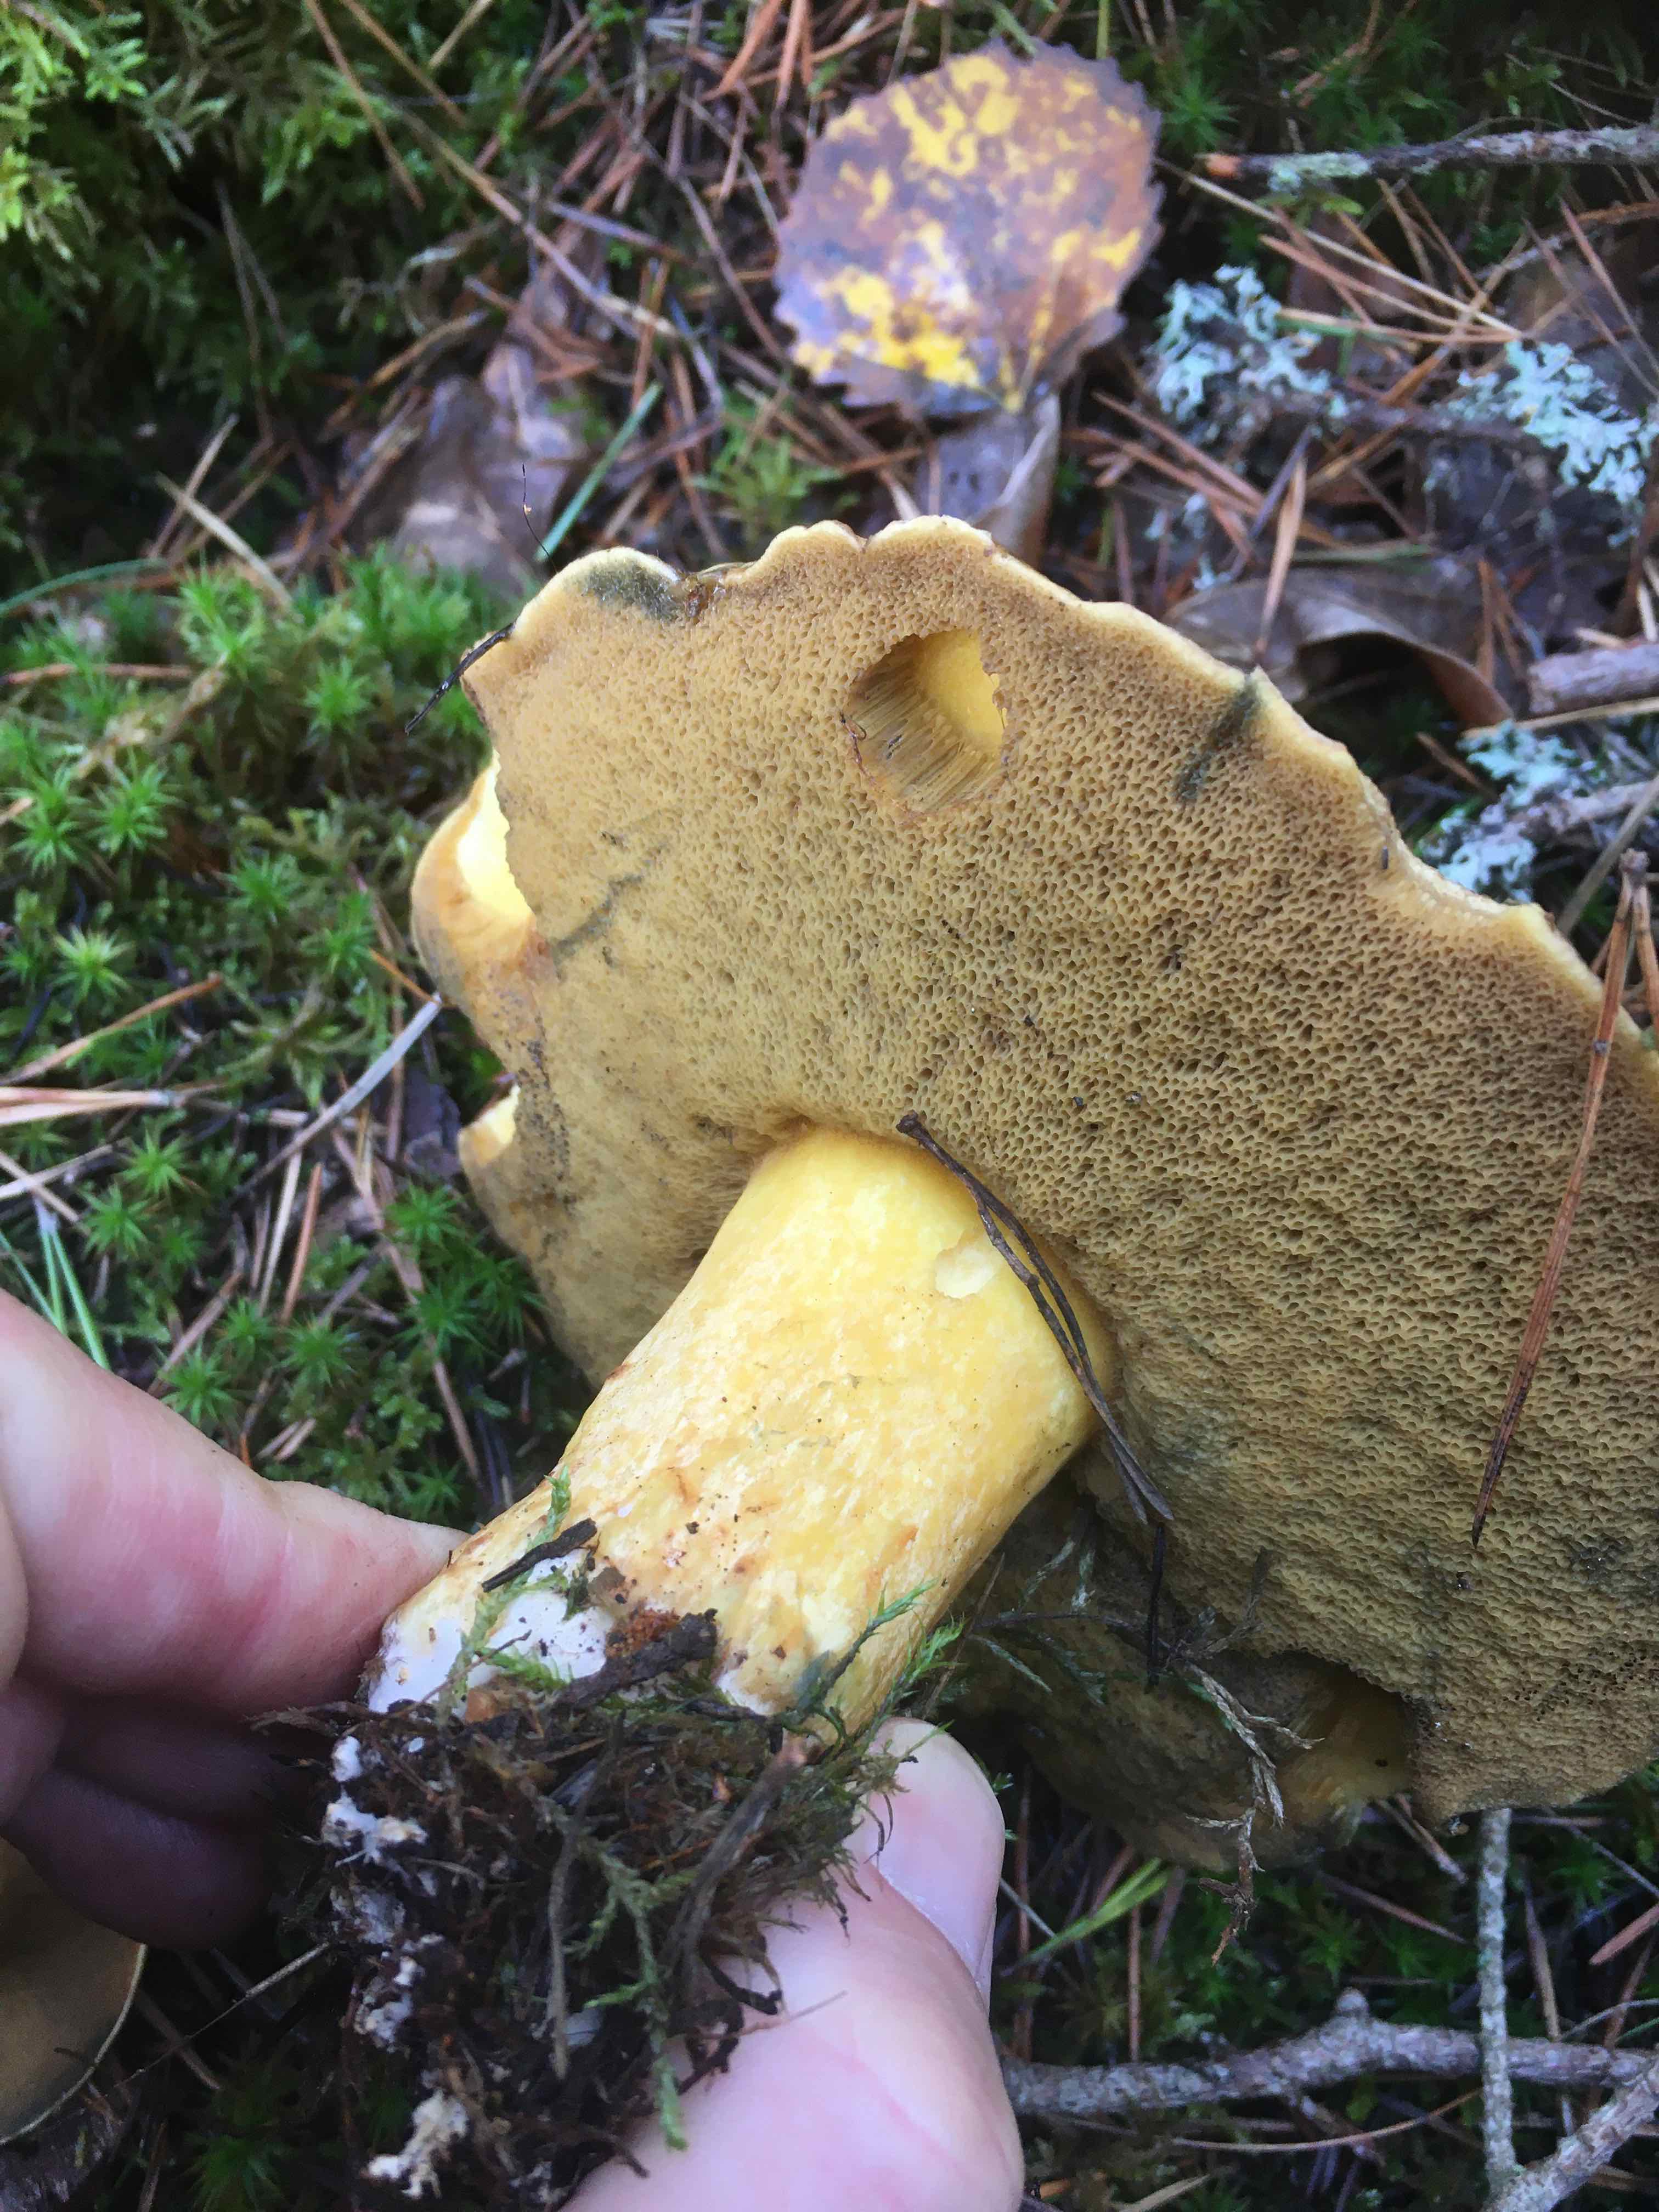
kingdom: Fungi
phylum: Basidiomycota
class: Agaricomycetes
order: Boletales
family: Suillaceae
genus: Suillus
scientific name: Suillus variegatus
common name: broget slimrørhat
